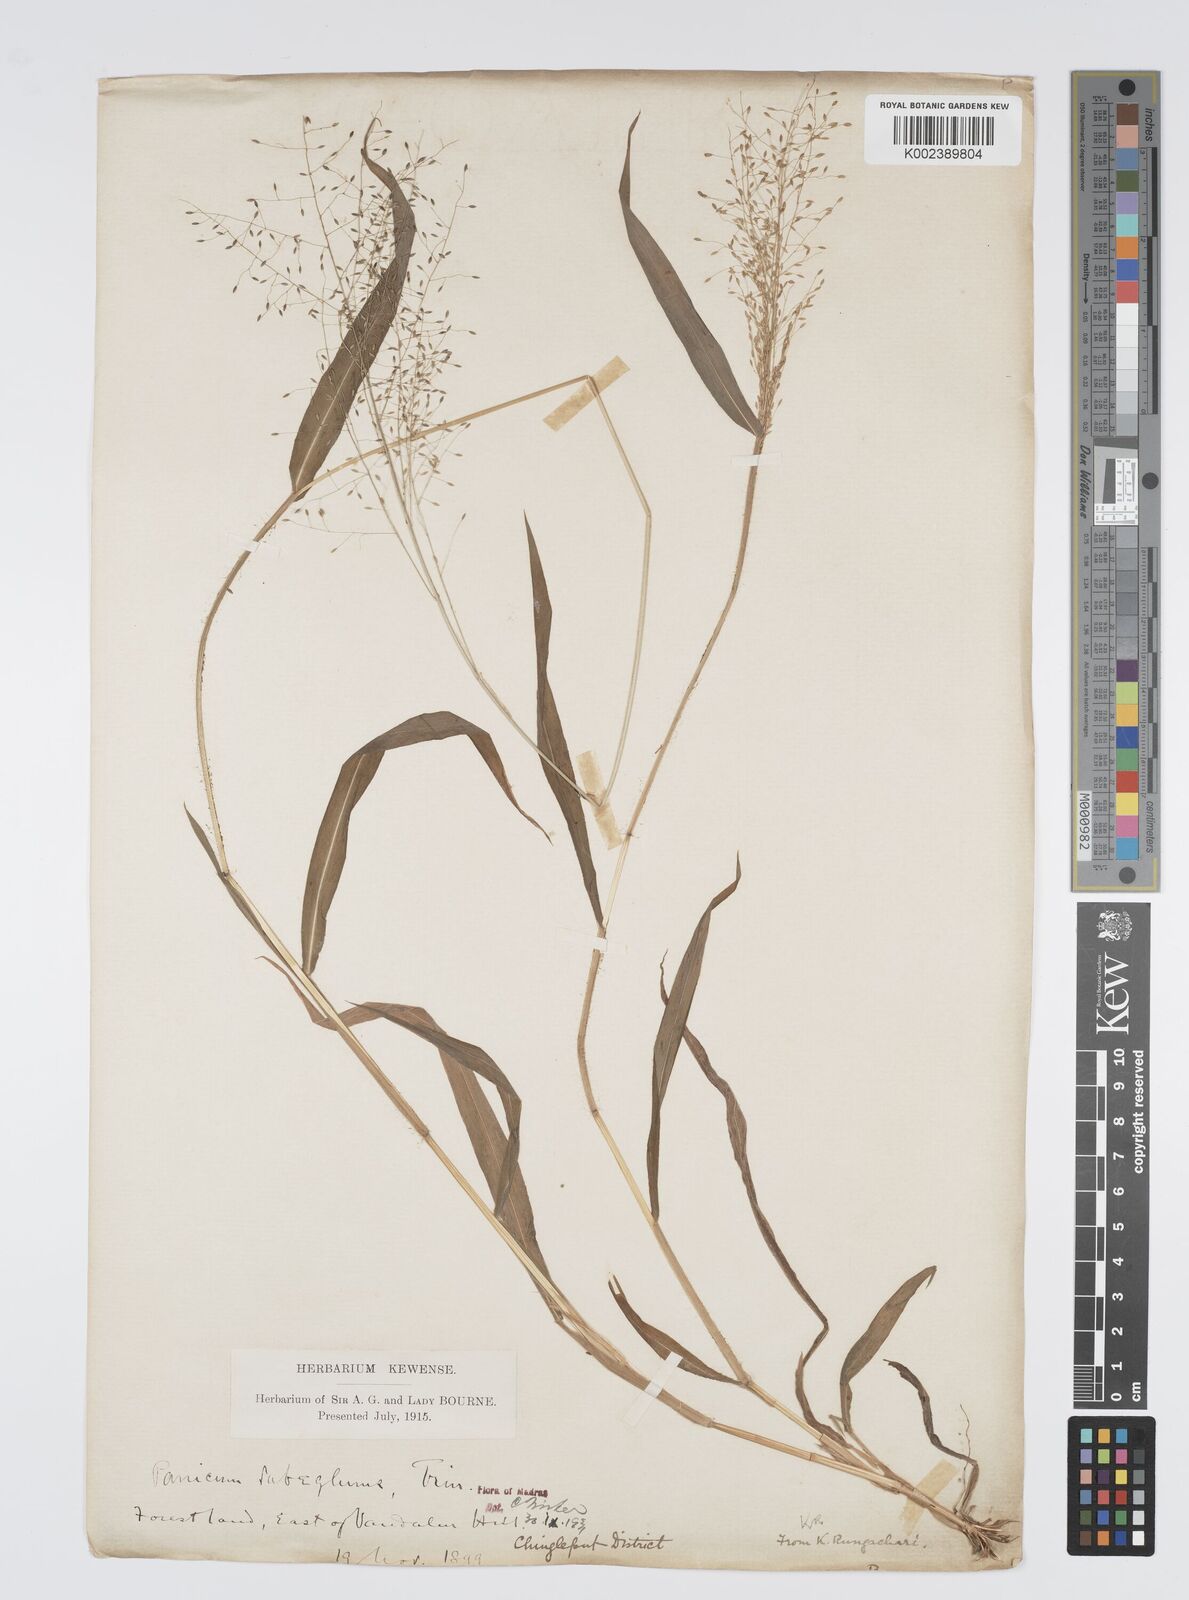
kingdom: Plantae
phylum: Tracheophyta
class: Liliopsida
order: Poales
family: Poaceae
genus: Digitaria
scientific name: Digitaria tomentosa
